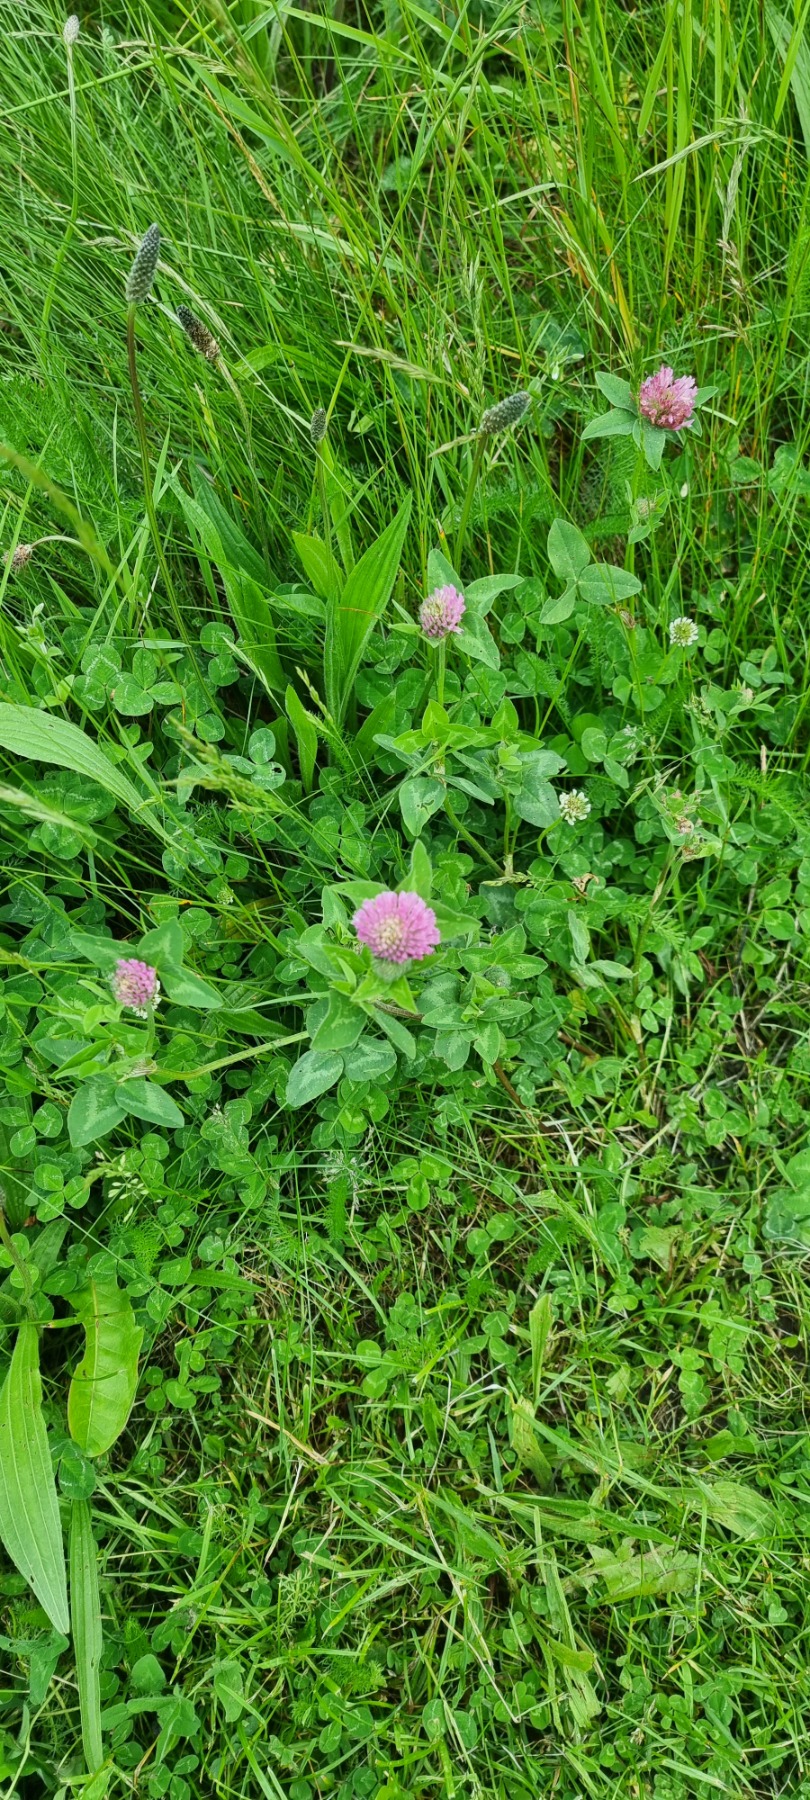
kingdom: Plantae
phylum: Tracheophyta
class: Magnoliopsida
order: Fabales
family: Fabaceae
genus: Trifolium
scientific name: Trifolium pratense
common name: Rød-kløver
